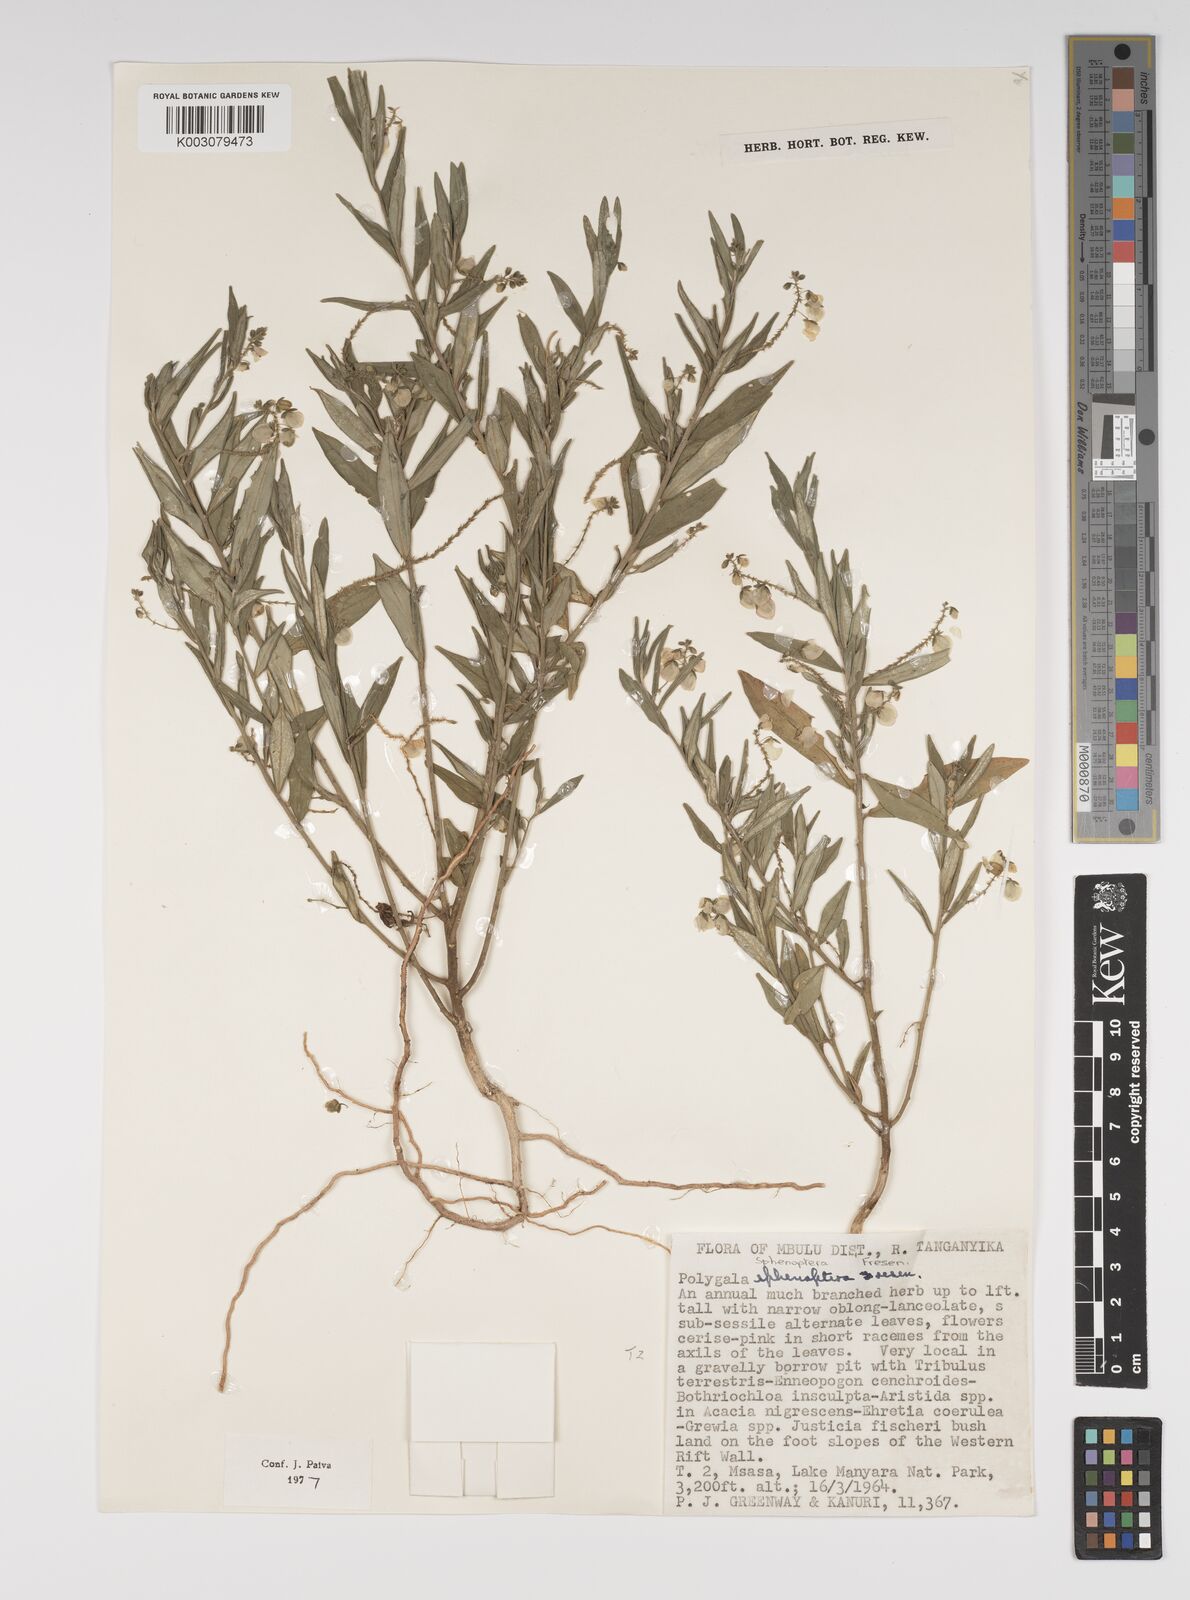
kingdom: Plantae
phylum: Tracheophyta
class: Magnoliopsida
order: Fabales
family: Polygalaceae
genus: Polygala
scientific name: Polygala sphenoptera
